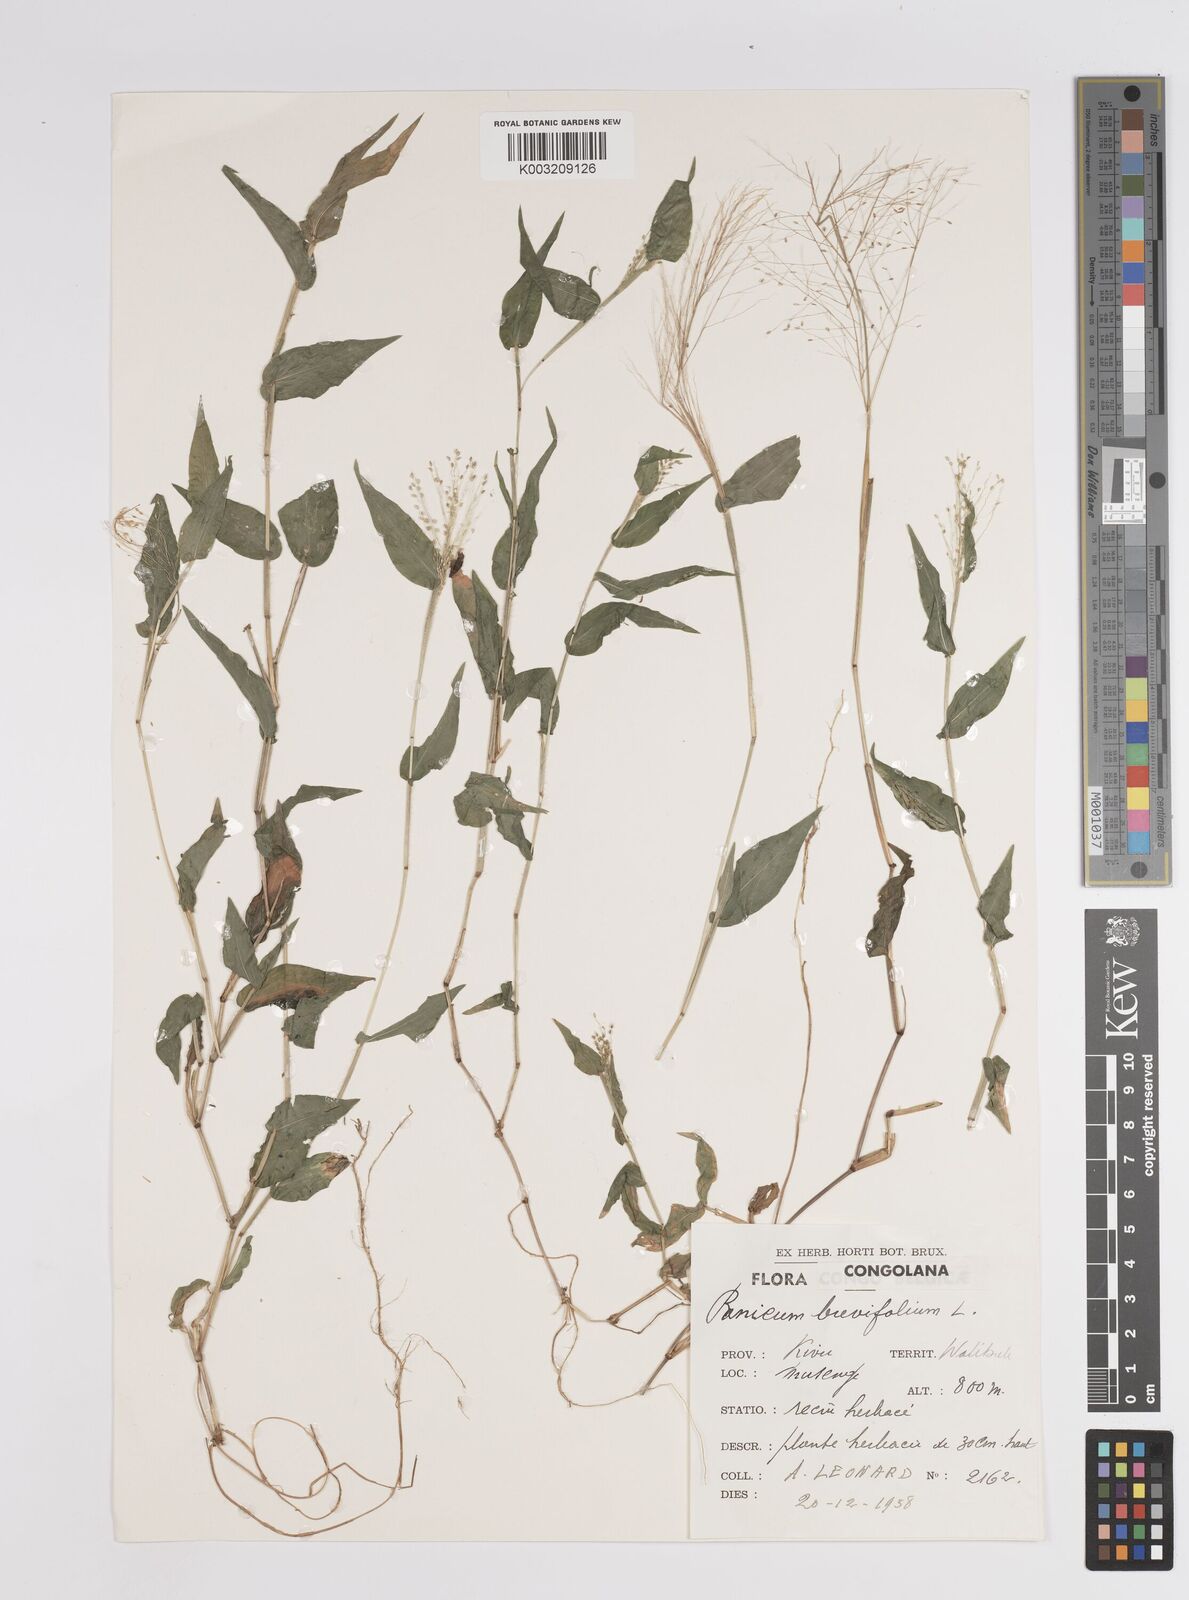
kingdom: Plantae
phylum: Tracheophyta
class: Liliopsida
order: Poales
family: Poaceae
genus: Panicum
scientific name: Panicum brevifolium
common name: Shortleaf panic grass
